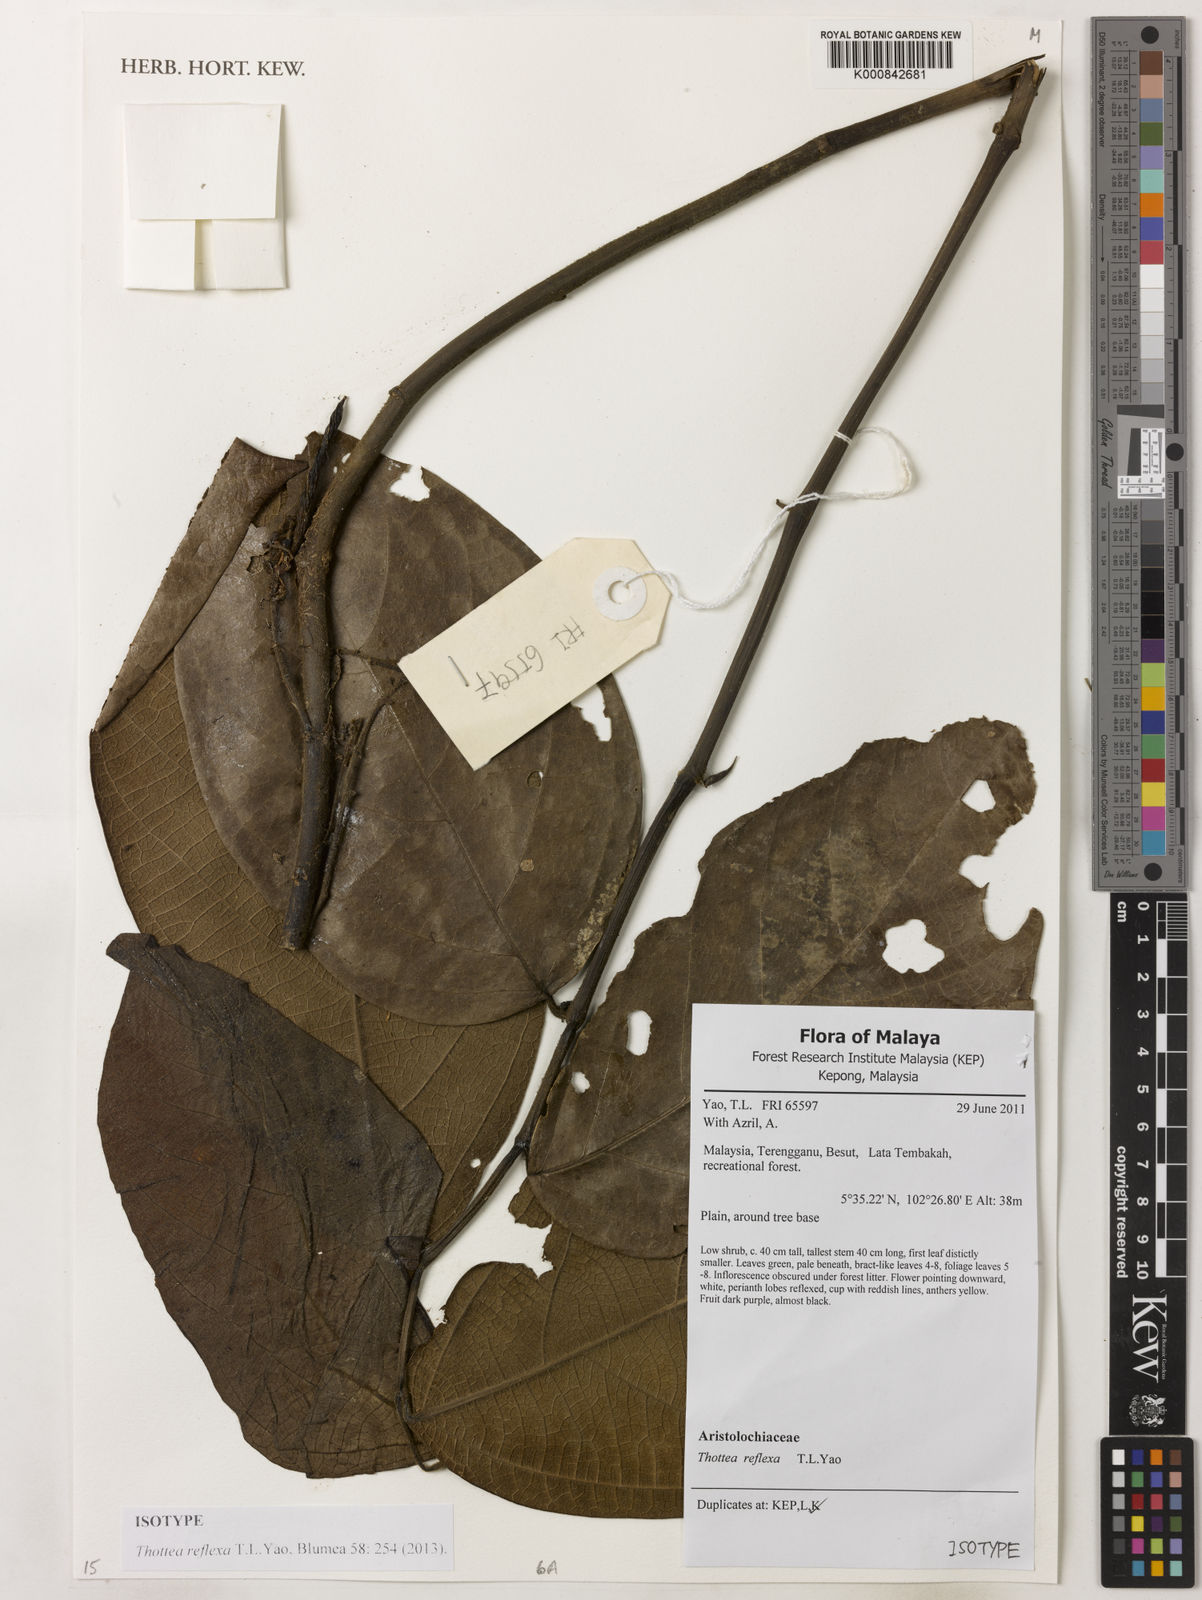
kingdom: Plantae
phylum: Tracheophyta
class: Magnoliopsida
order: Piperales
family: Aristolochiaceae
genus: Thottea
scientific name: Thottea reflexa
